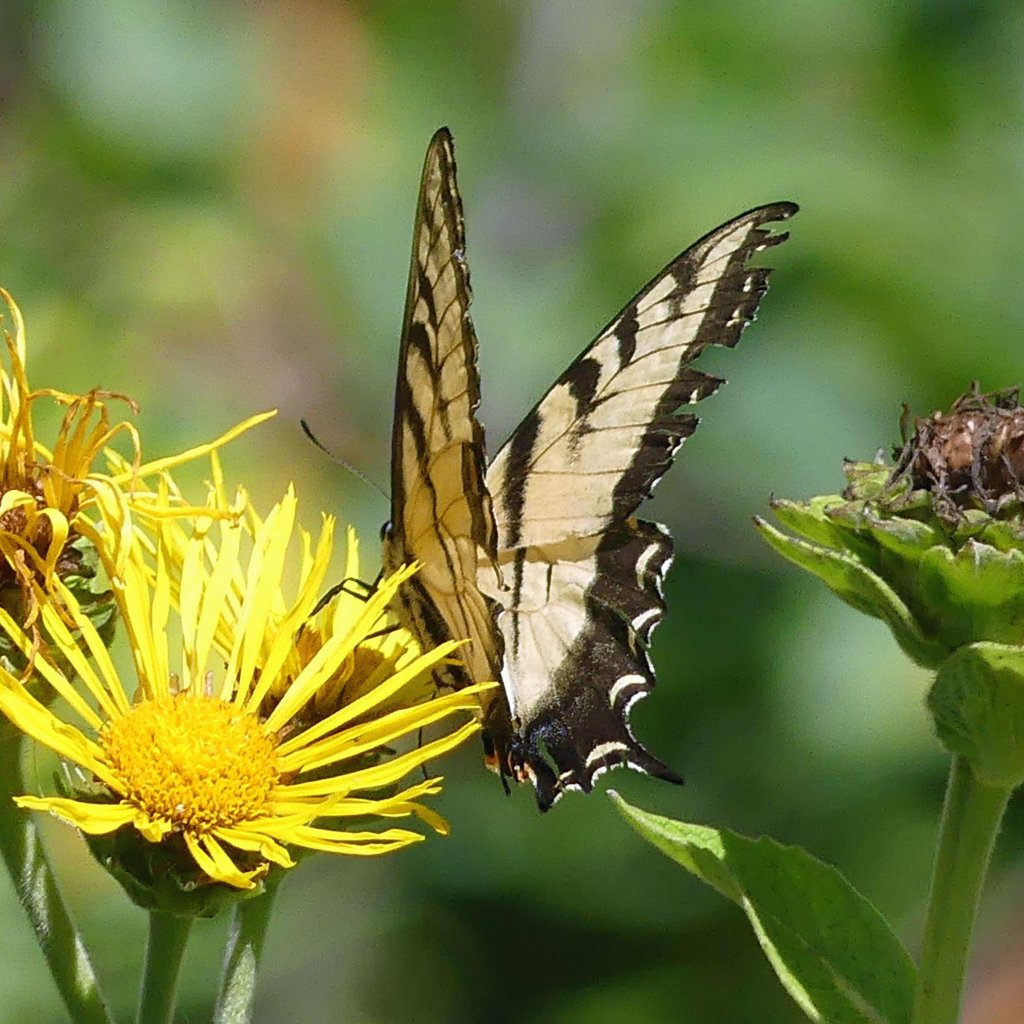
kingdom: Animalia
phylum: Arthropoda
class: Insecta
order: Lepidoptera
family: Papilionidae
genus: Pterourus
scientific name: Pterourus glaucus
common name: Eastern Tiger Swallowtail
